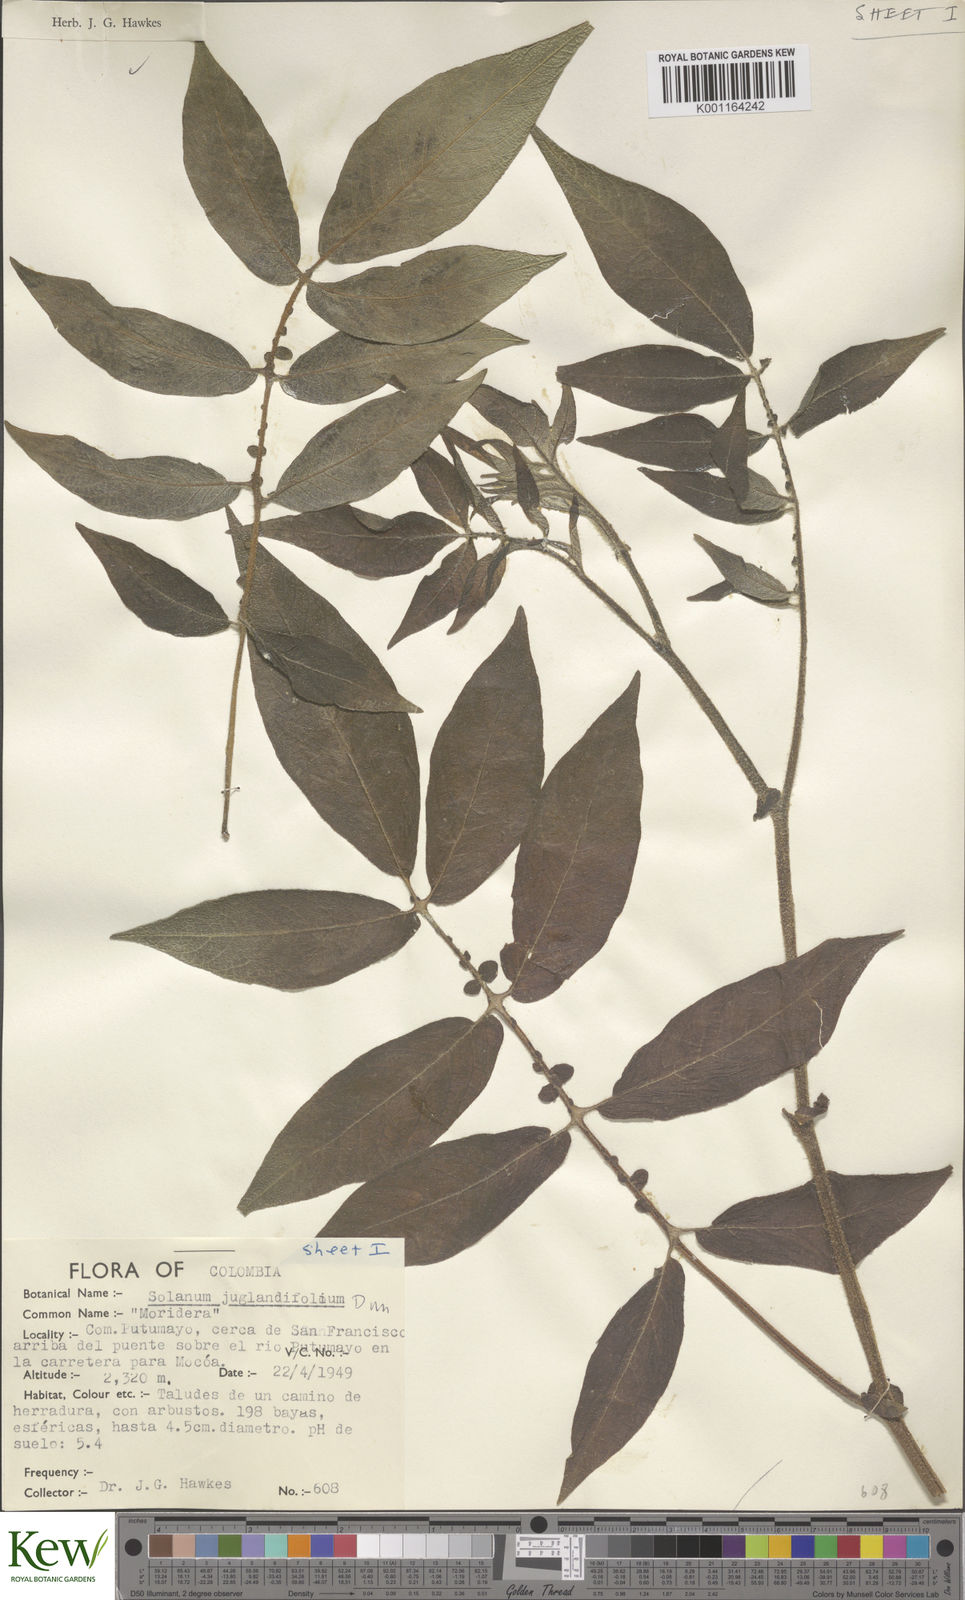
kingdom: Plantae
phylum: Tracheophyta
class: Magnoliopsida
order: Solanales
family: Solanaceae
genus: Solanum
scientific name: Solanum juglandifolium
